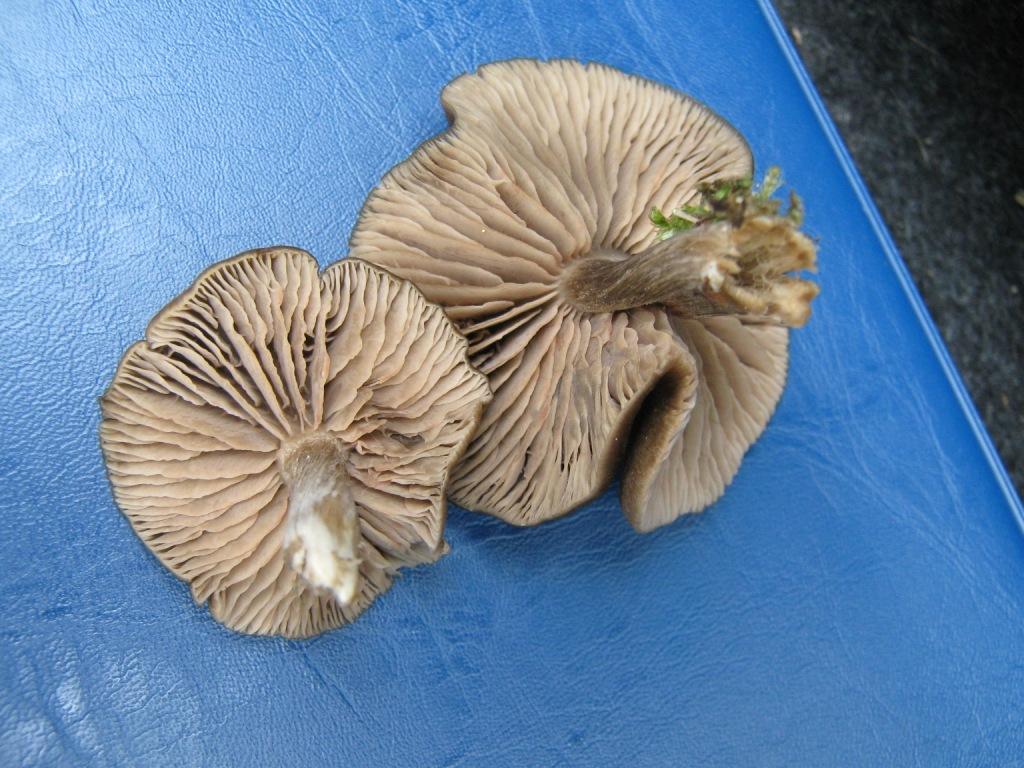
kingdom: Fungi
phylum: Basidiomycota
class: Agaricomycetes
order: Agaricales
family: Entolomataceae
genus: Entoloma
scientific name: Entoloma sericeum
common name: silkeglinsende rødblad
